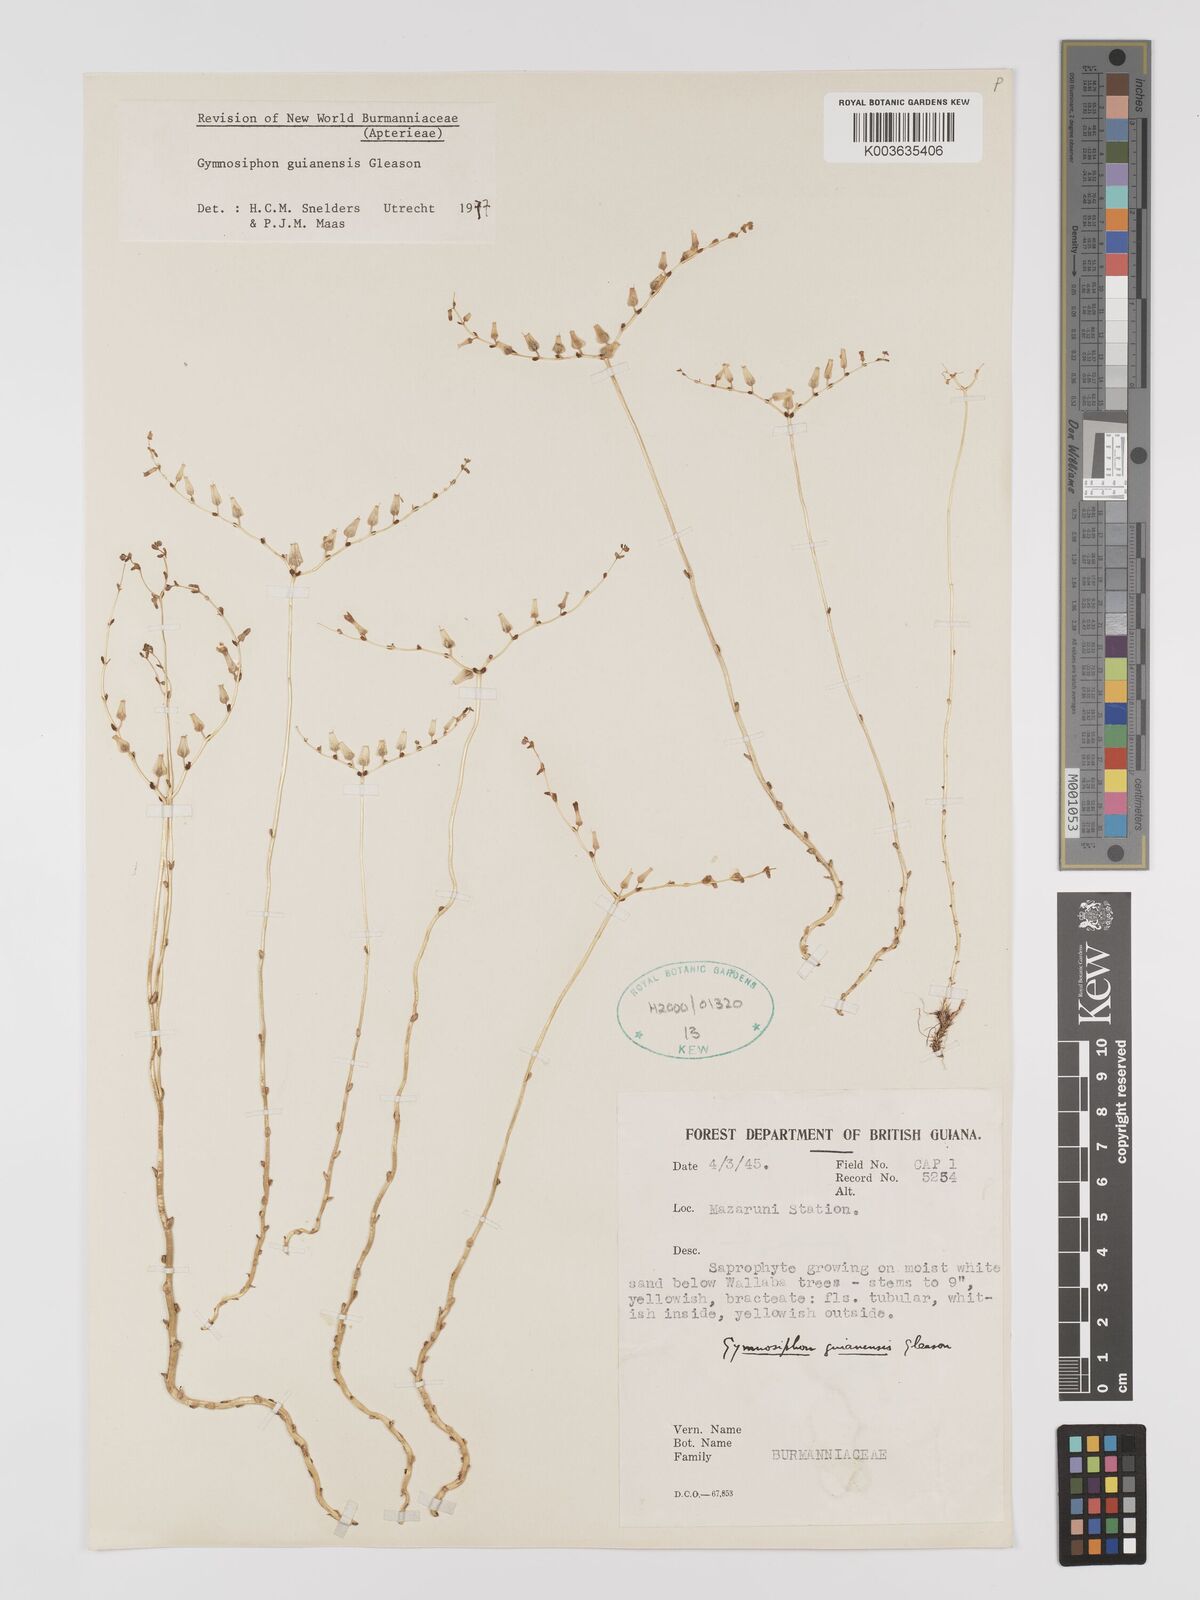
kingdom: Plantae
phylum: Tracheophyta
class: Liliopsida
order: Dioscoreales
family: Burmanniaceae
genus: Gymnosiphon
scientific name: Gymnosiphon guianensis
